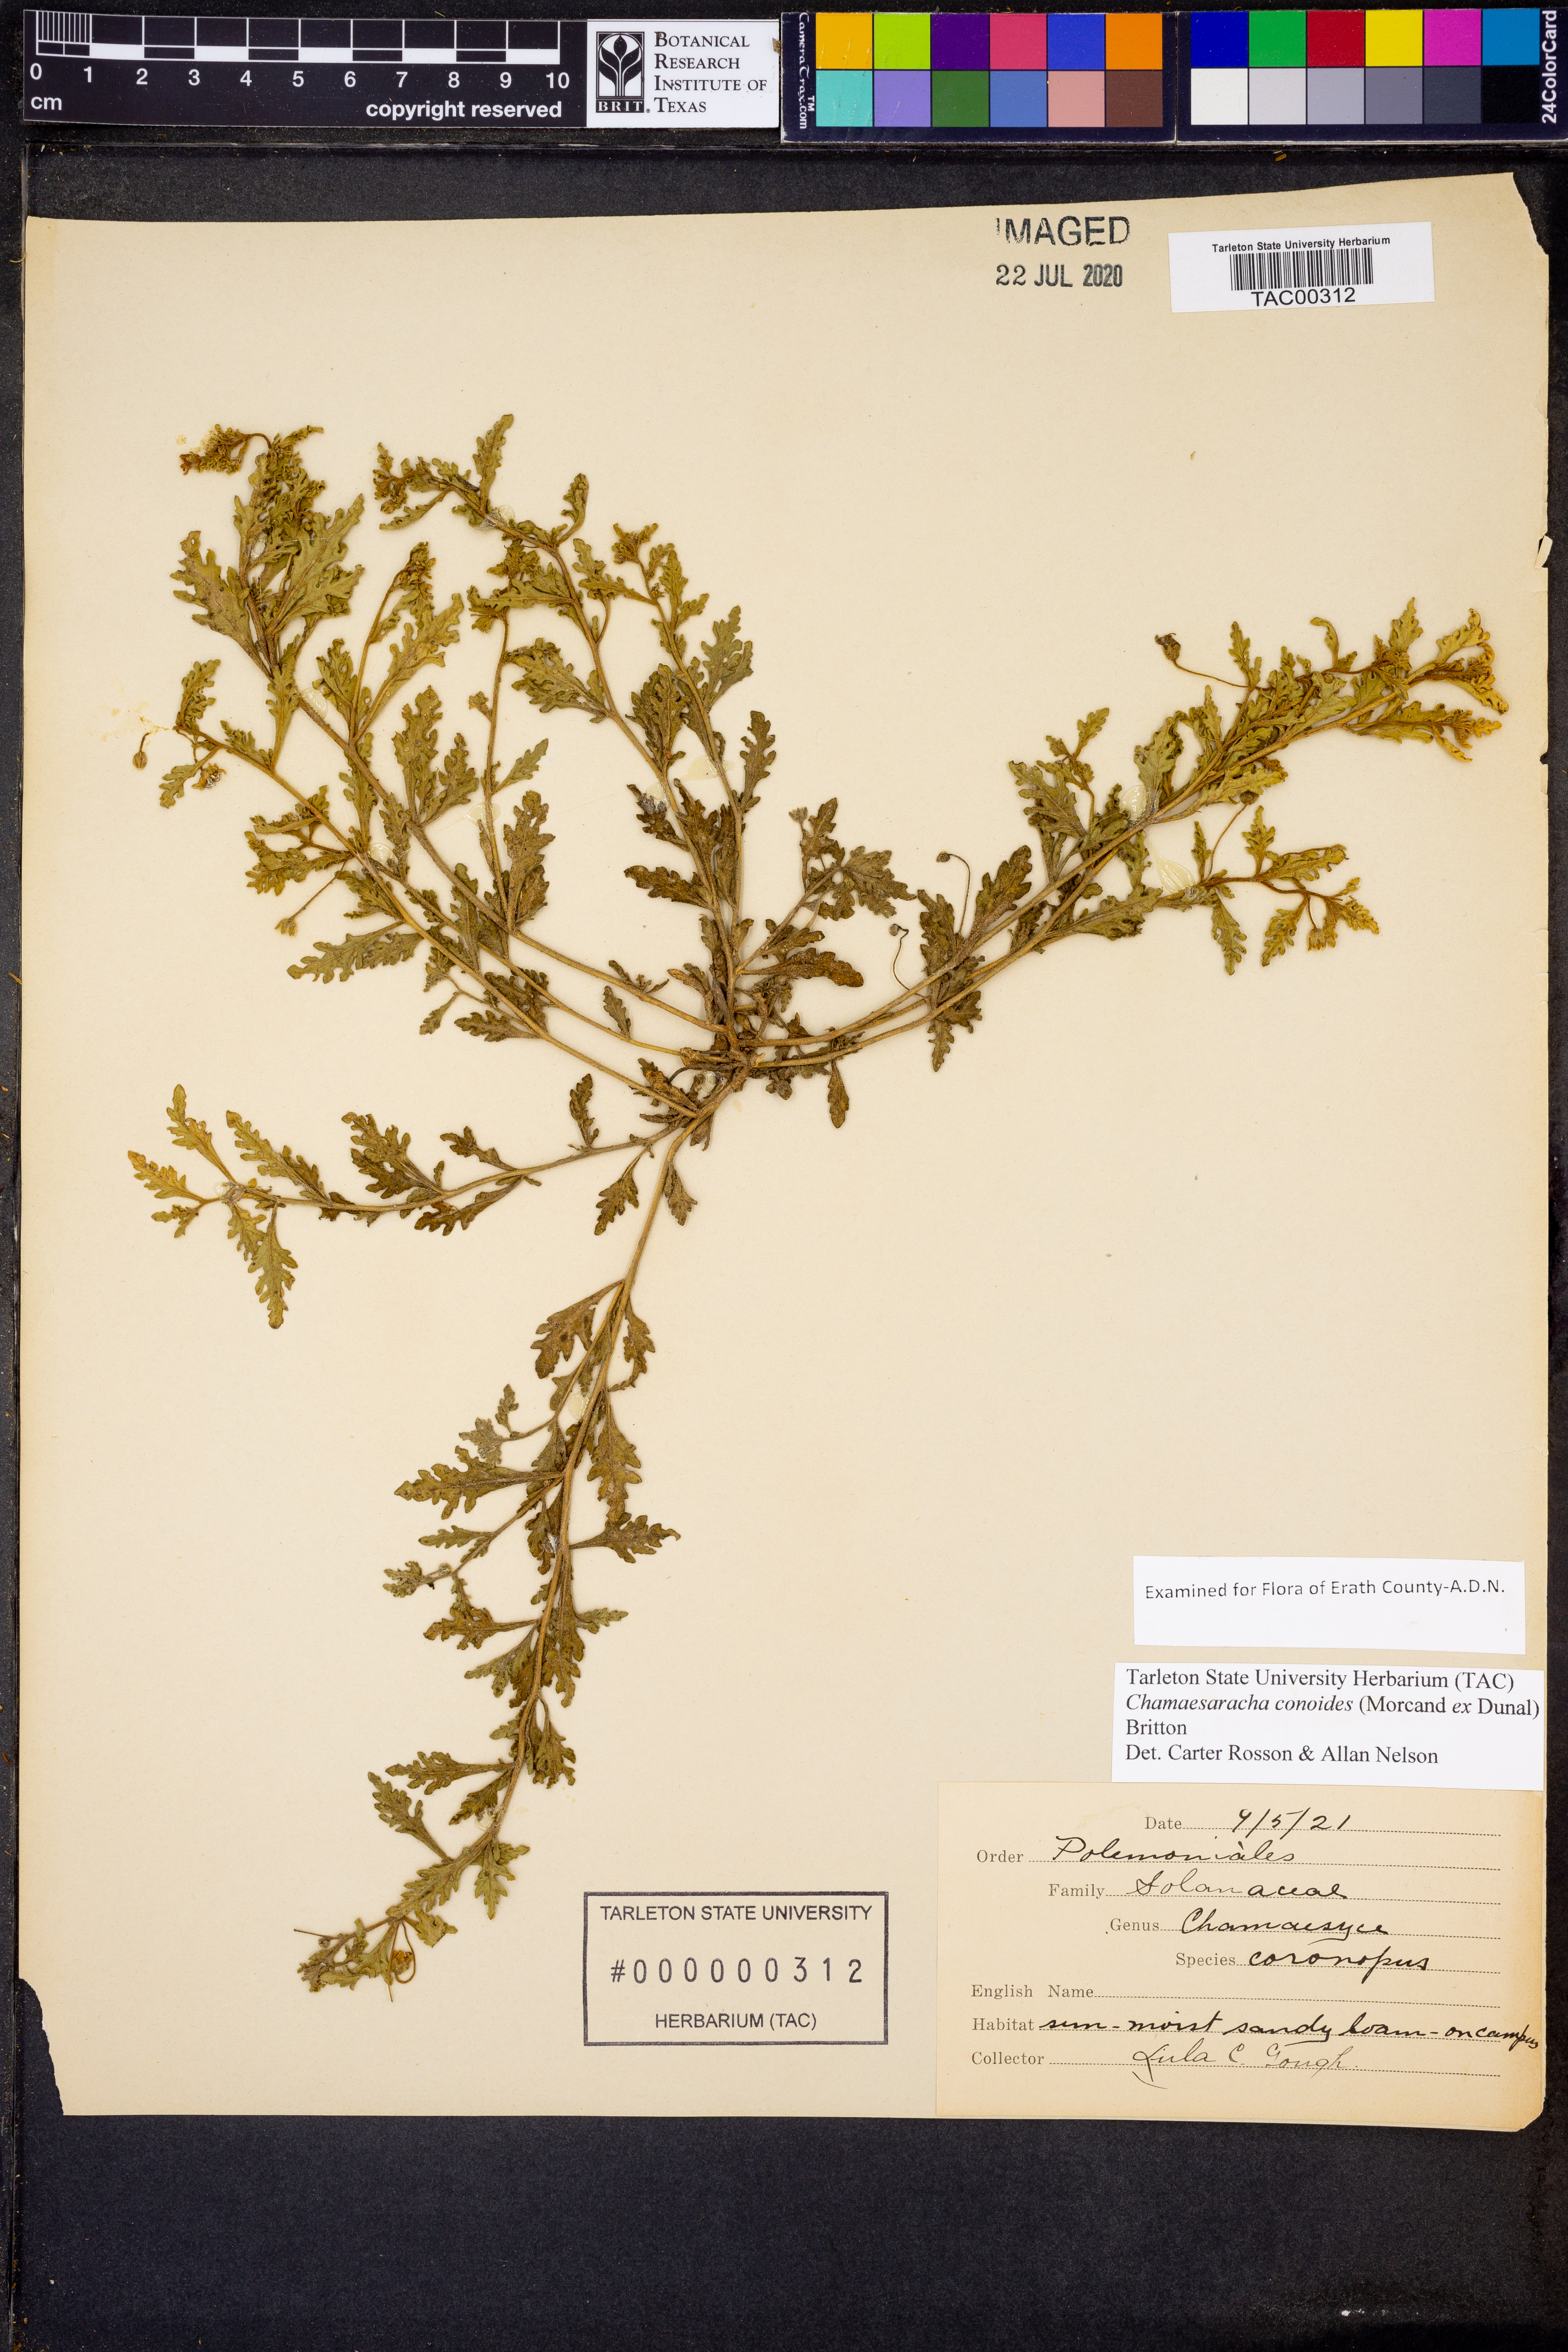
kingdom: Plantae
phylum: Tracheophyta
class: Magnoliopsida
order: Solanales
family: Solanaceae
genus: Chamaesaracha
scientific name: Chamaesaracha coniodes
